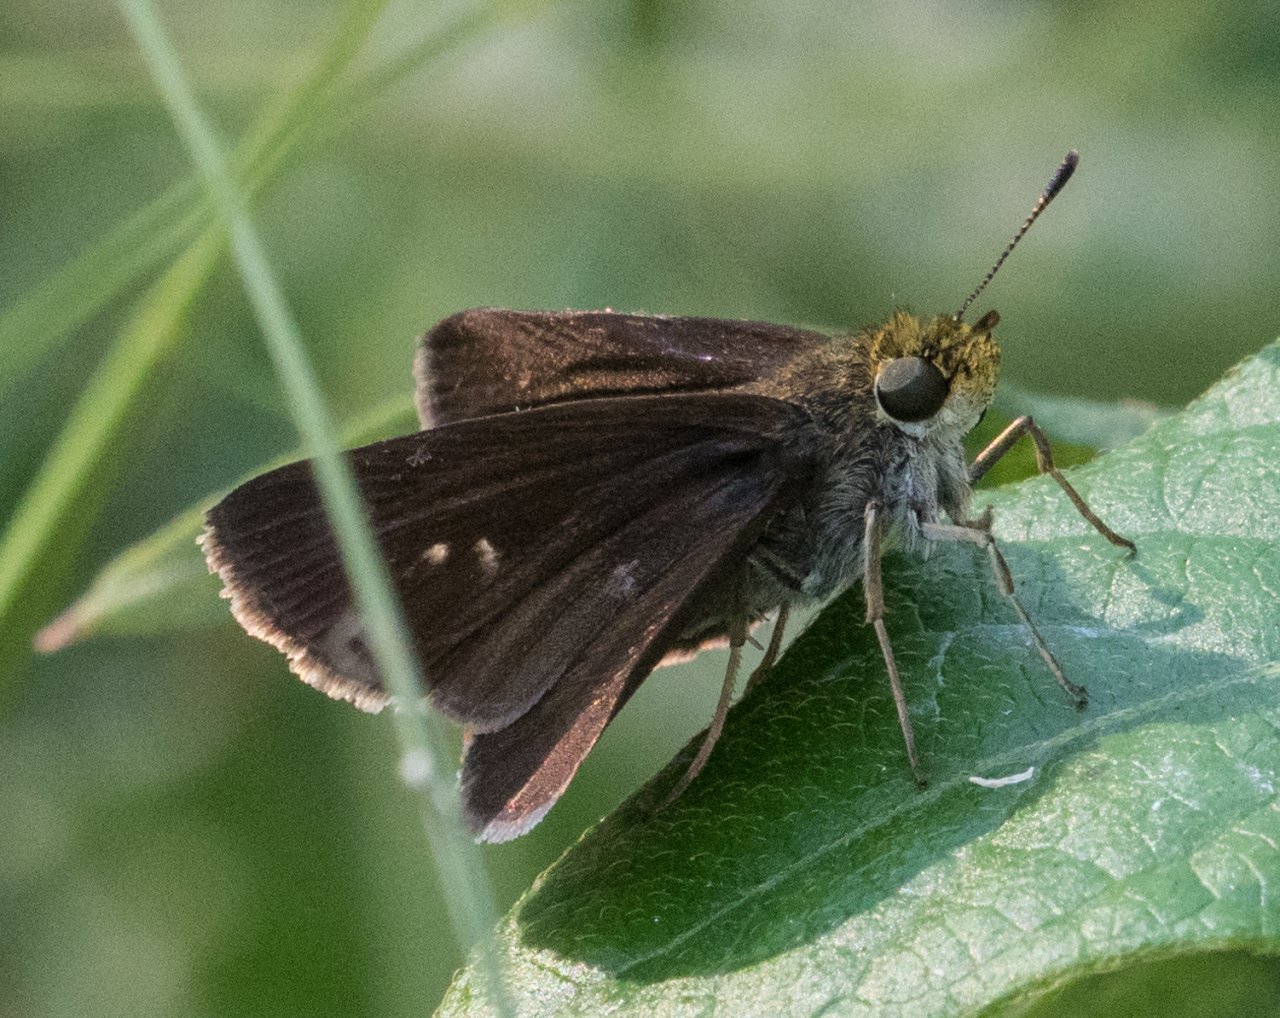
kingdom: Animalia
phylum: Arthropoda
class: Insecta
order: Lepidoptera
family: Hesperiidae
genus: Euphyes
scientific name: Euphyes vestris
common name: Dun Skipper
